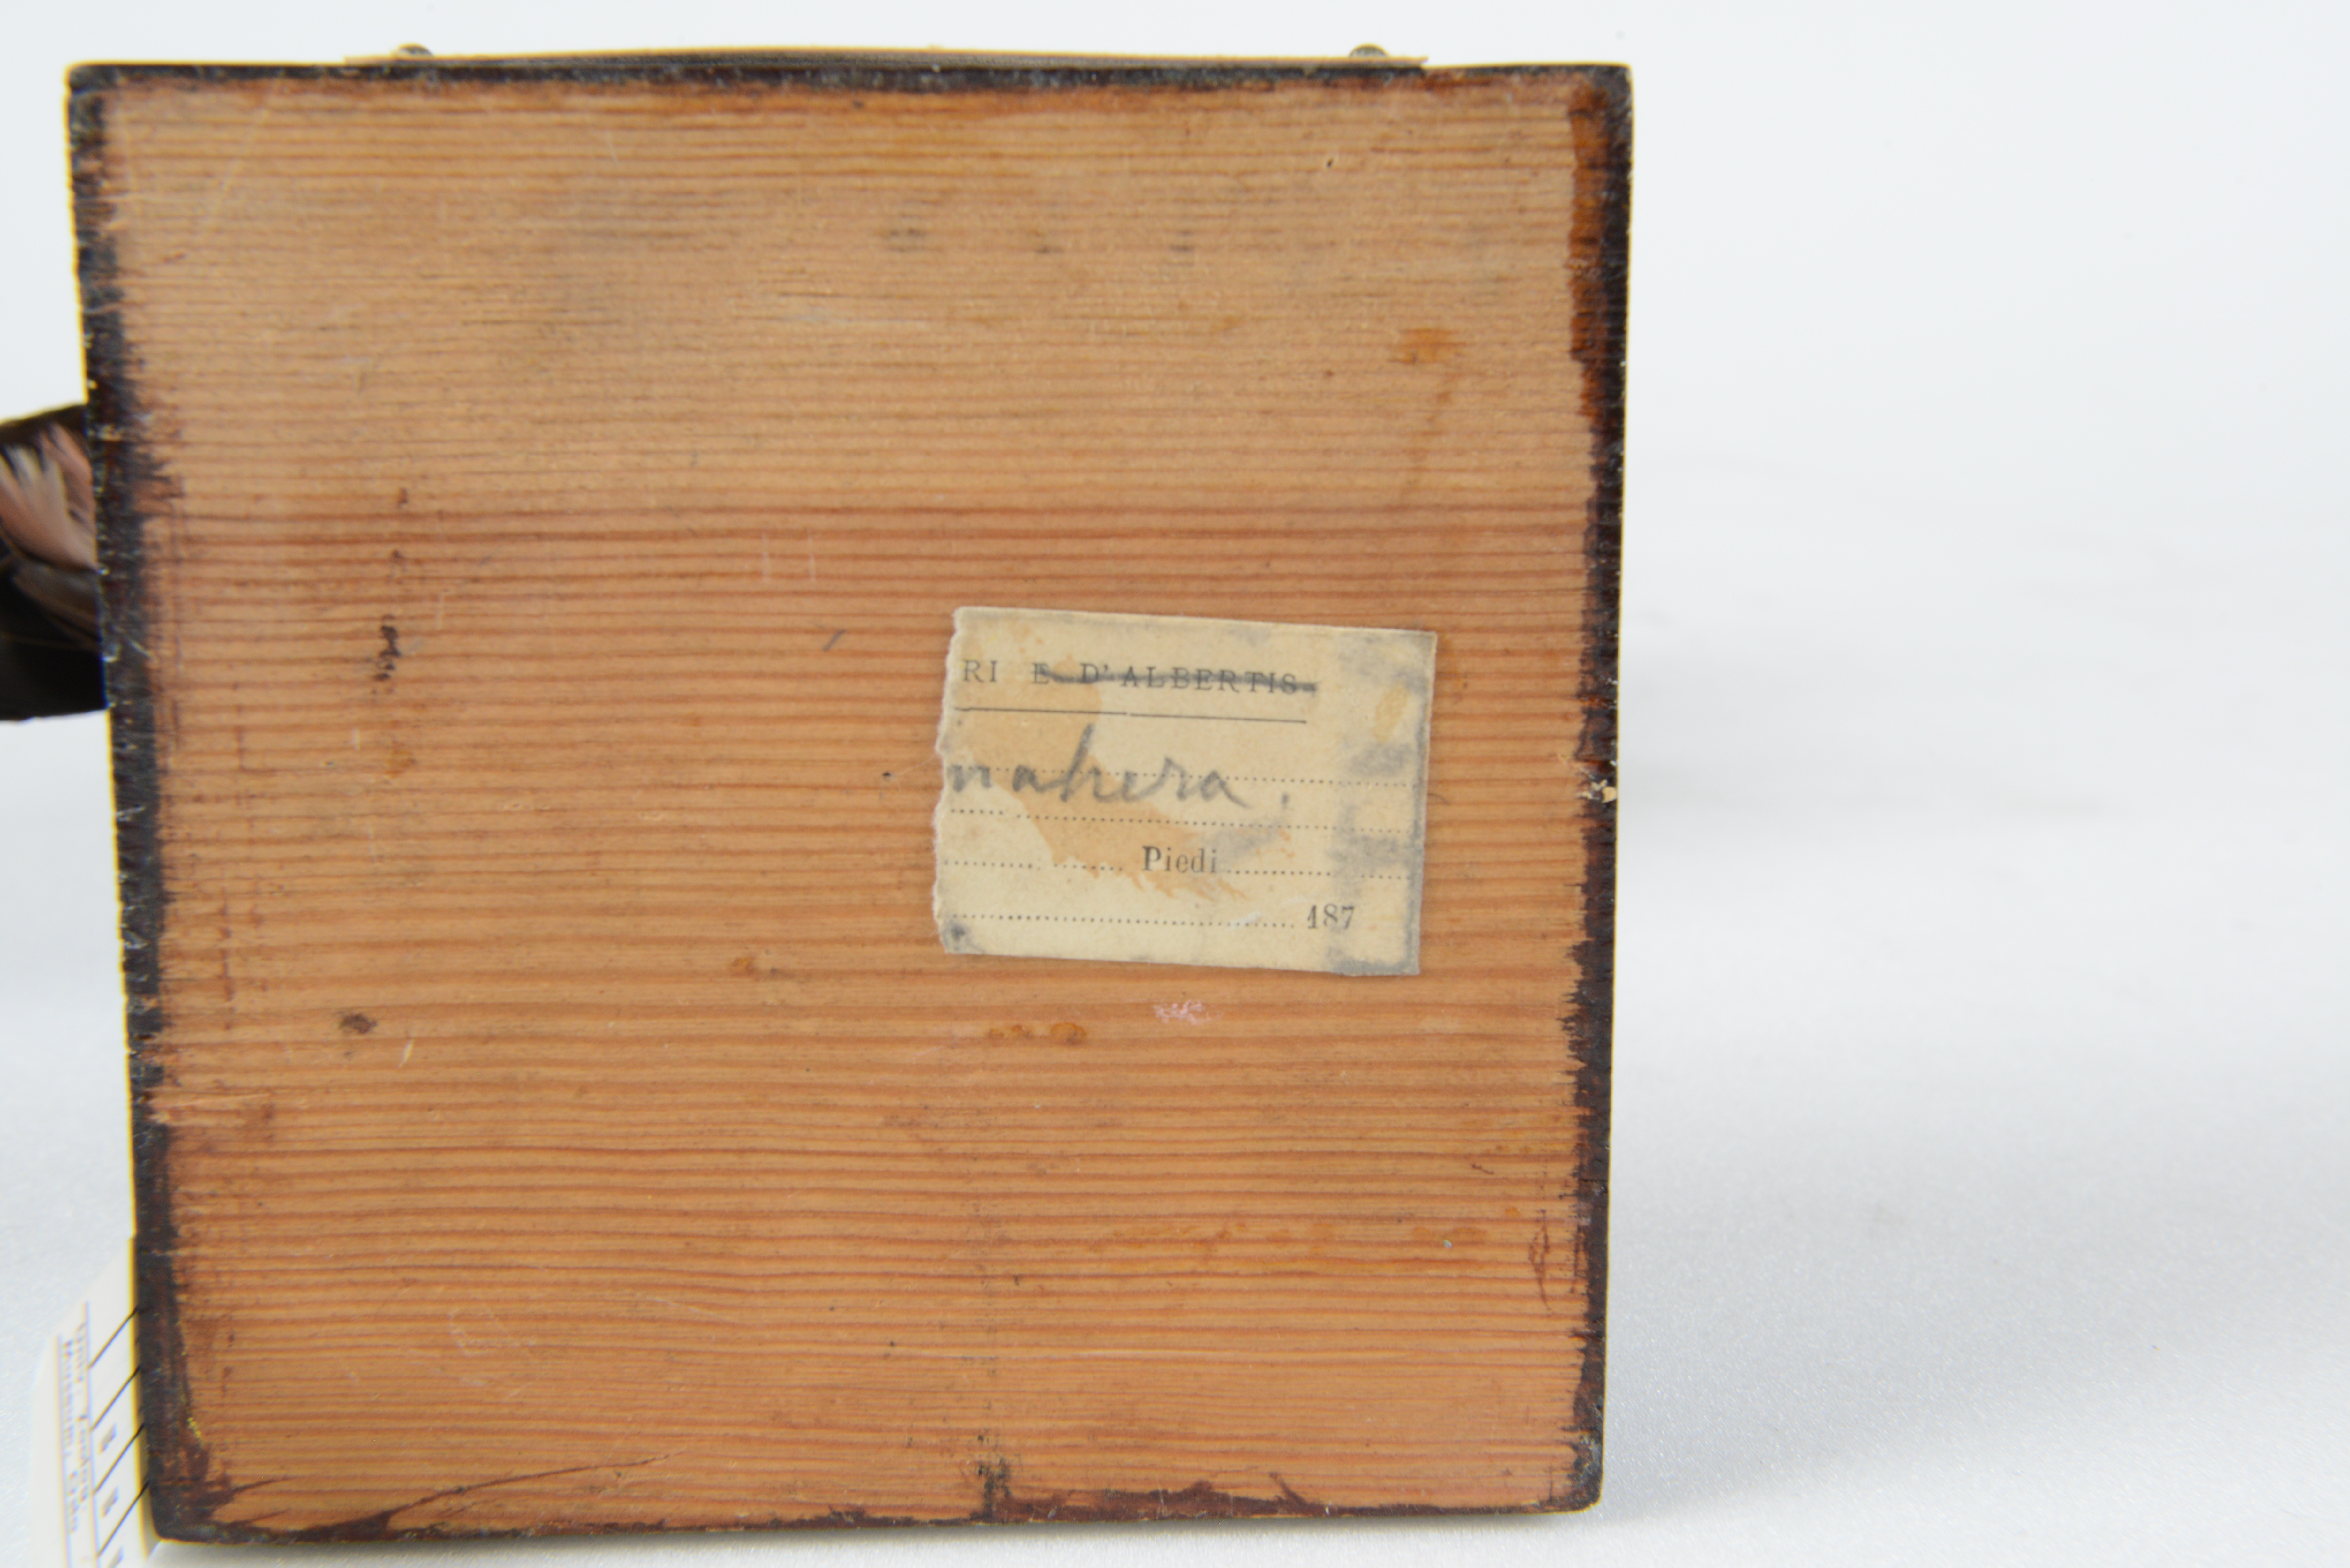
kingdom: Animalia
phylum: Chordata
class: Aves
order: Passeriformes
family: Pittidae
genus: Pitta
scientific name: Pitta maxima
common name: Ivory-breasted pitta
